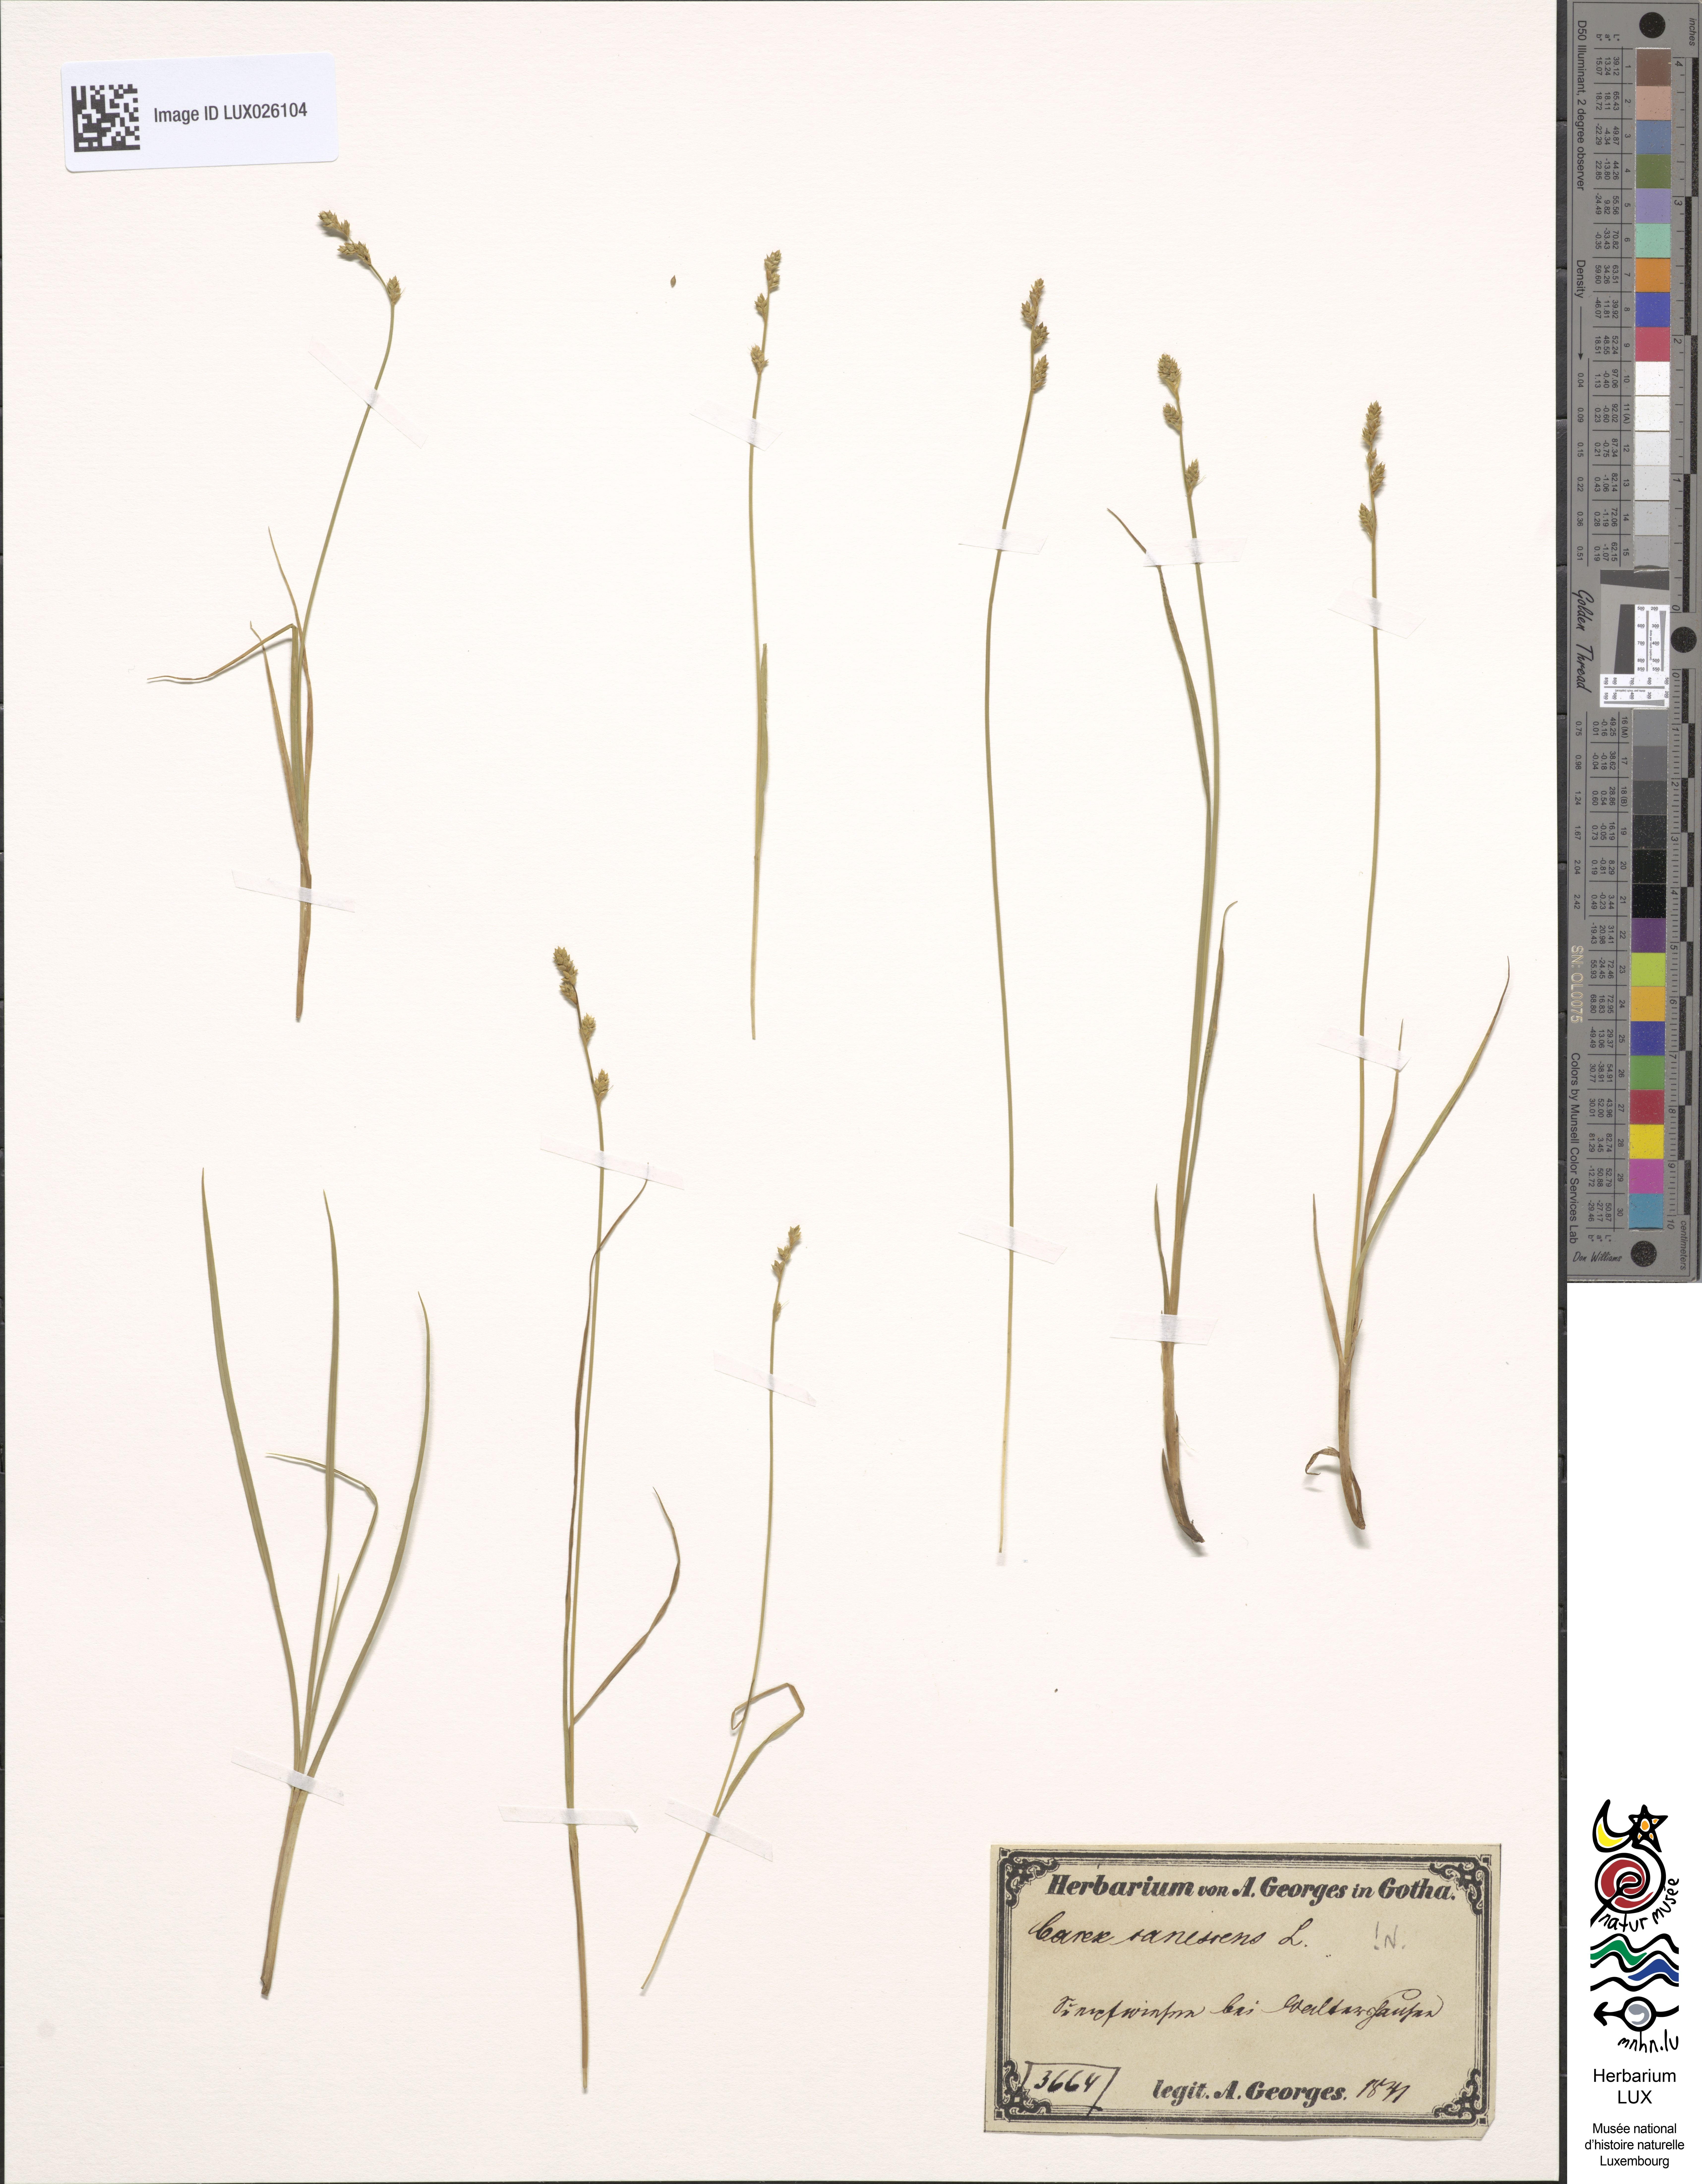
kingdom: Plantae
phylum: Tracheophyta
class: Liliopsida
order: Poales
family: Cyperaceae
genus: Carex
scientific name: Carex canescens
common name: White sedge
